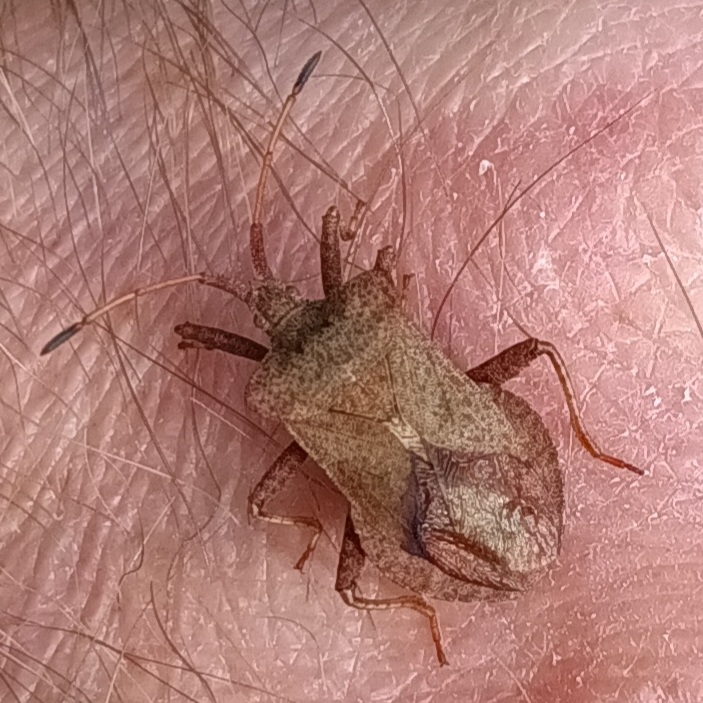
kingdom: Animalia
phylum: Arthropoda
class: Insecta
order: Hemiptera
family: Coreidae
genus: Coreus
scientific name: Coreus marginatus
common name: Skræppetæge
